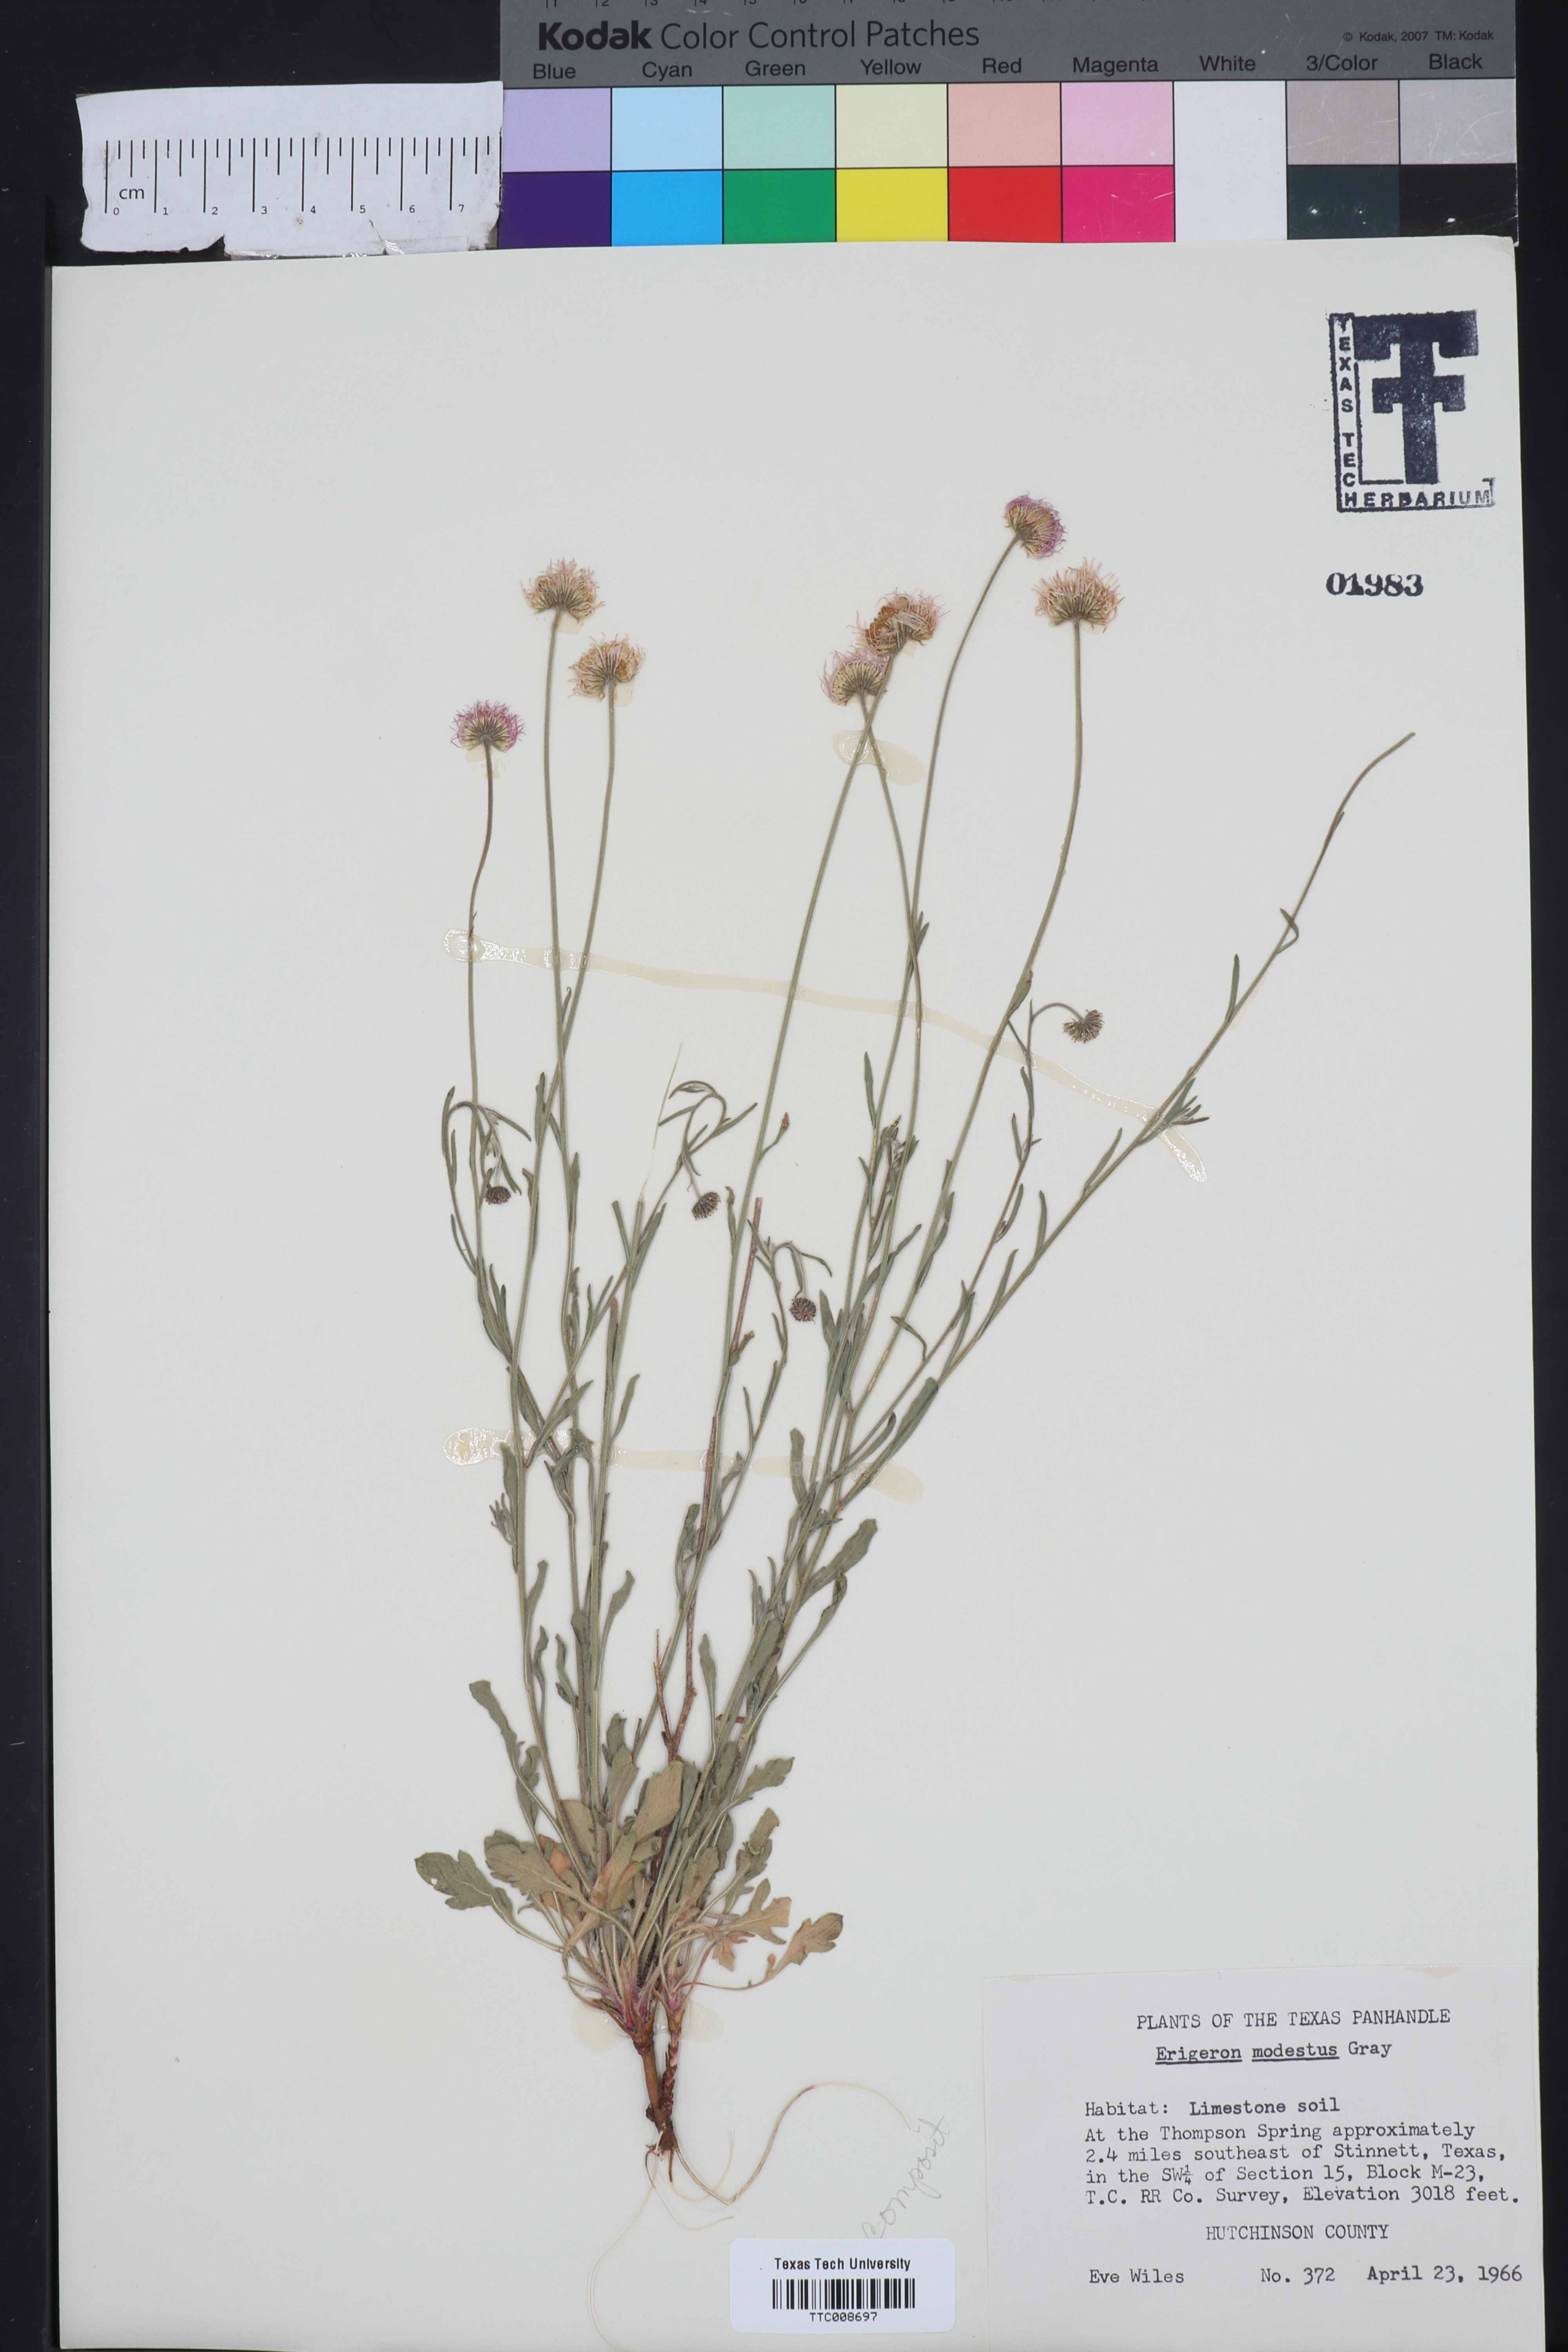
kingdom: Plantae
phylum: Tracheophyta
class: Magnoliopsida
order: Asterales
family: Asteraceae
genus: Erigeron
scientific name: Erigeron modestus
